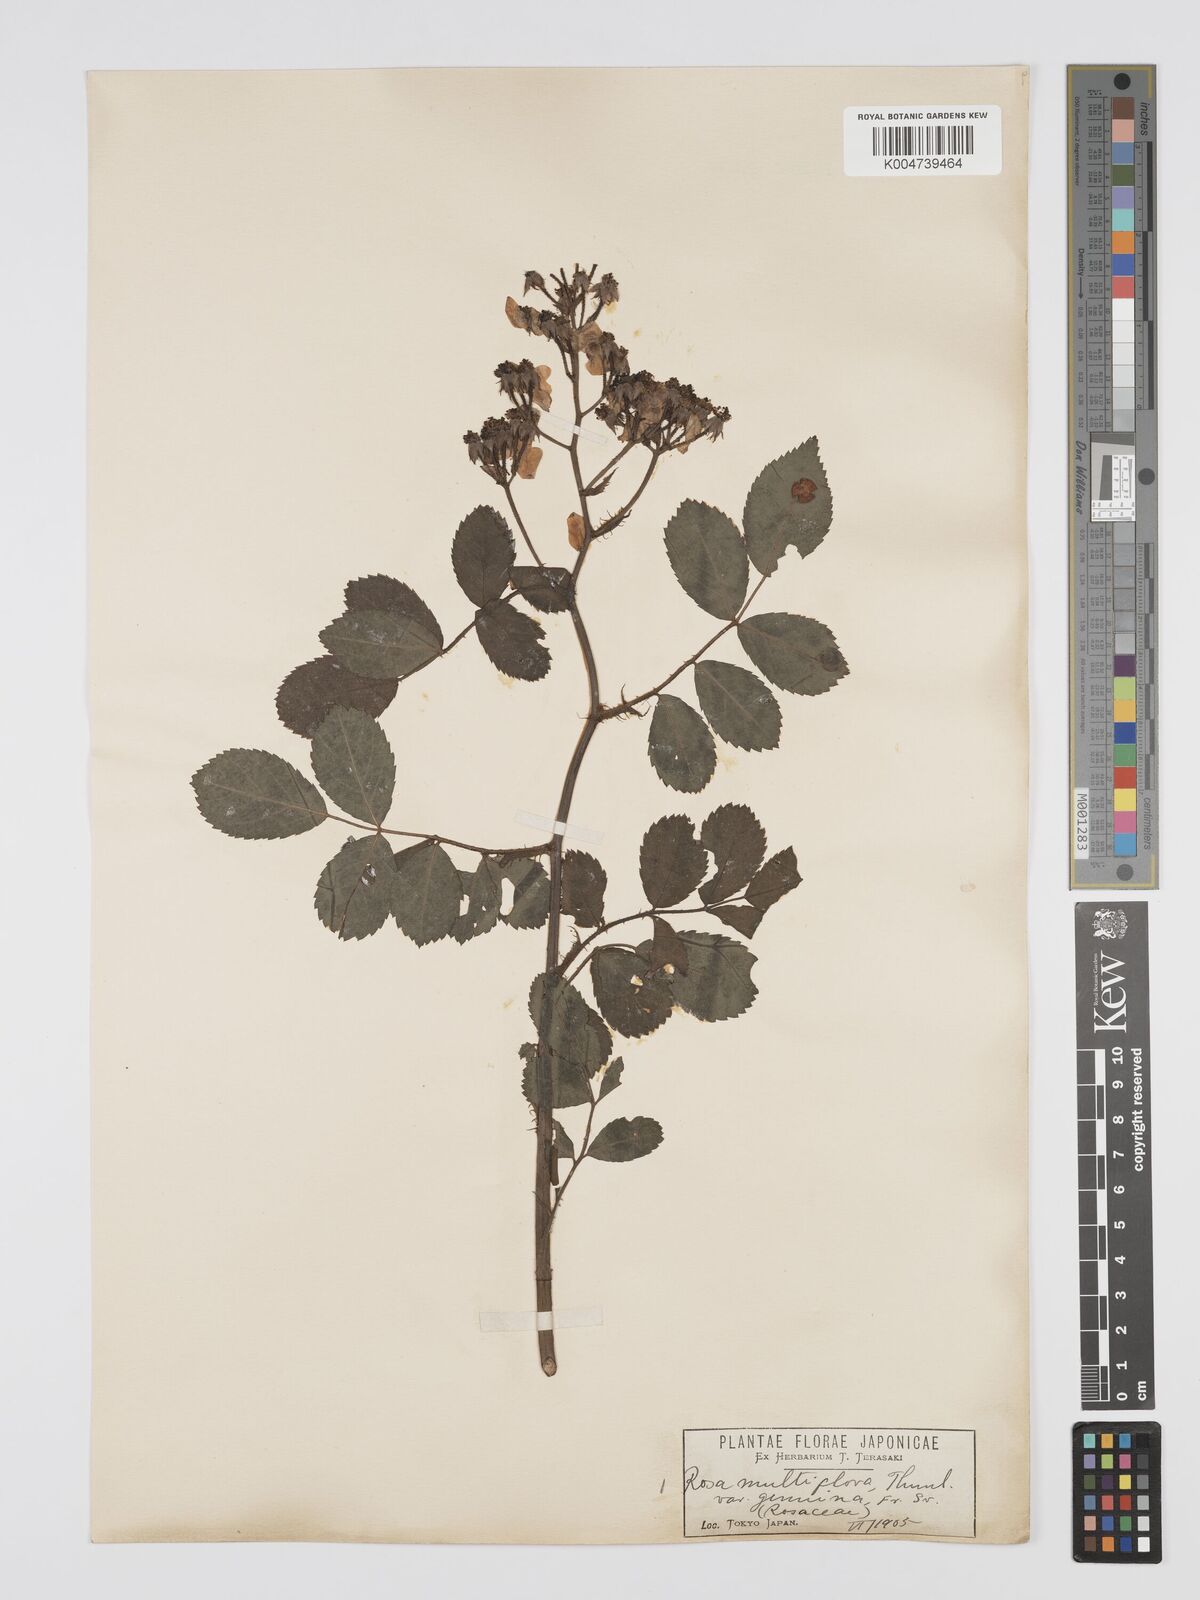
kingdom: Plantae
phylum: Tracheophyta
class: Magnoliopsida
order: Rosales
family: Rosaceae
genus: Rosa
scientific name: Rosa
